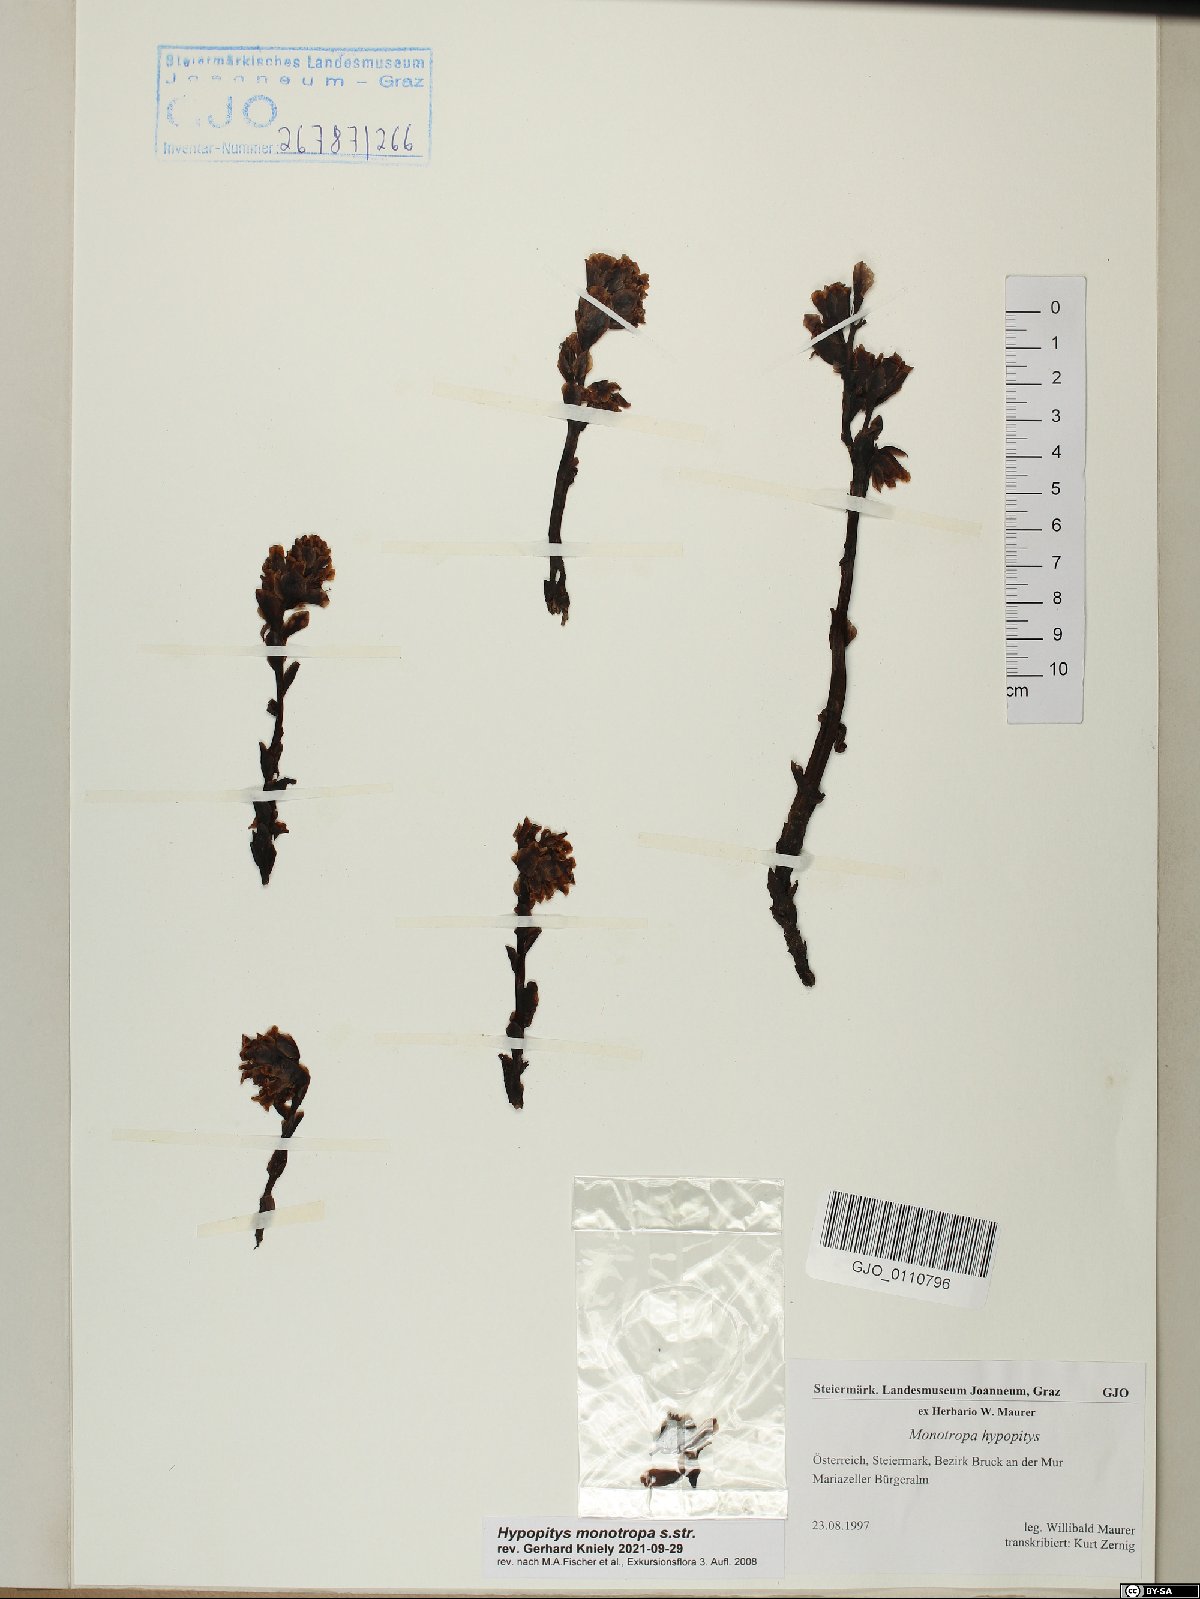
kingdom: Plantae
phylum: Tracheophyta
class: Magnoliopsida
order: Ericales
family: Ericaceae
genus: Hypopitys
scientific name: Hypopitys monotropa
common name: Yellow bird's-nest
